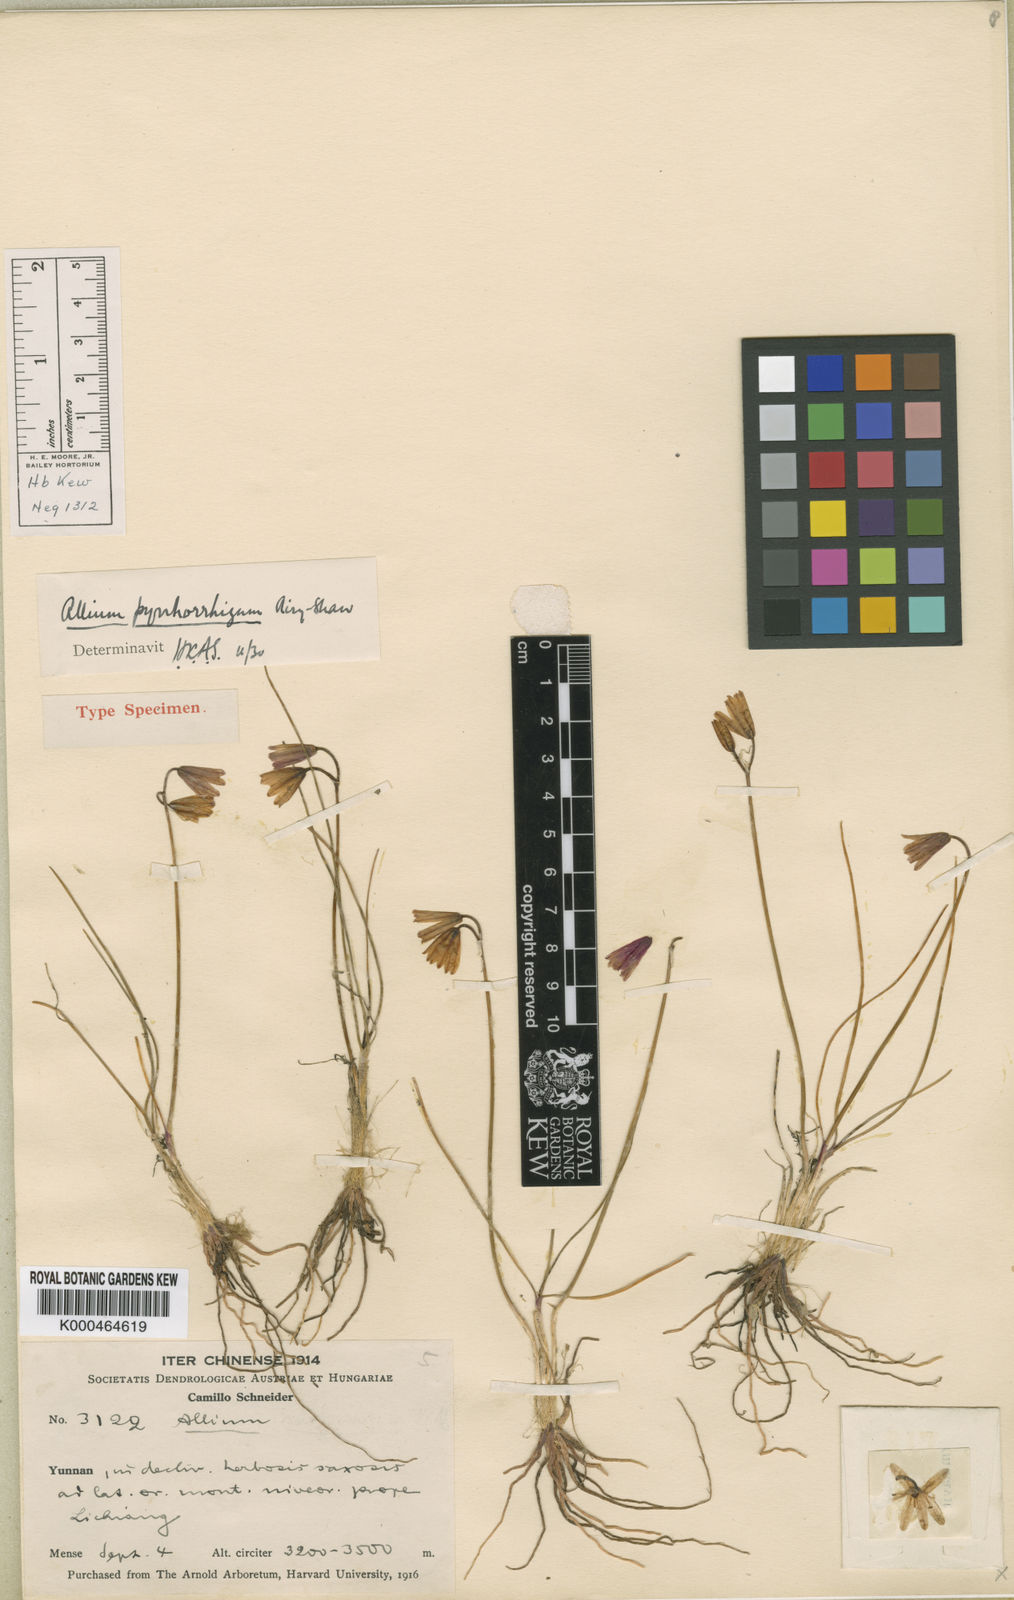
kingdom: Plantae
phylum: Tracheophyta
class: Liliopsida
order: Asparagales
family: Amaryllidaceae
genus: Allium
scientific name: Allium mairei
